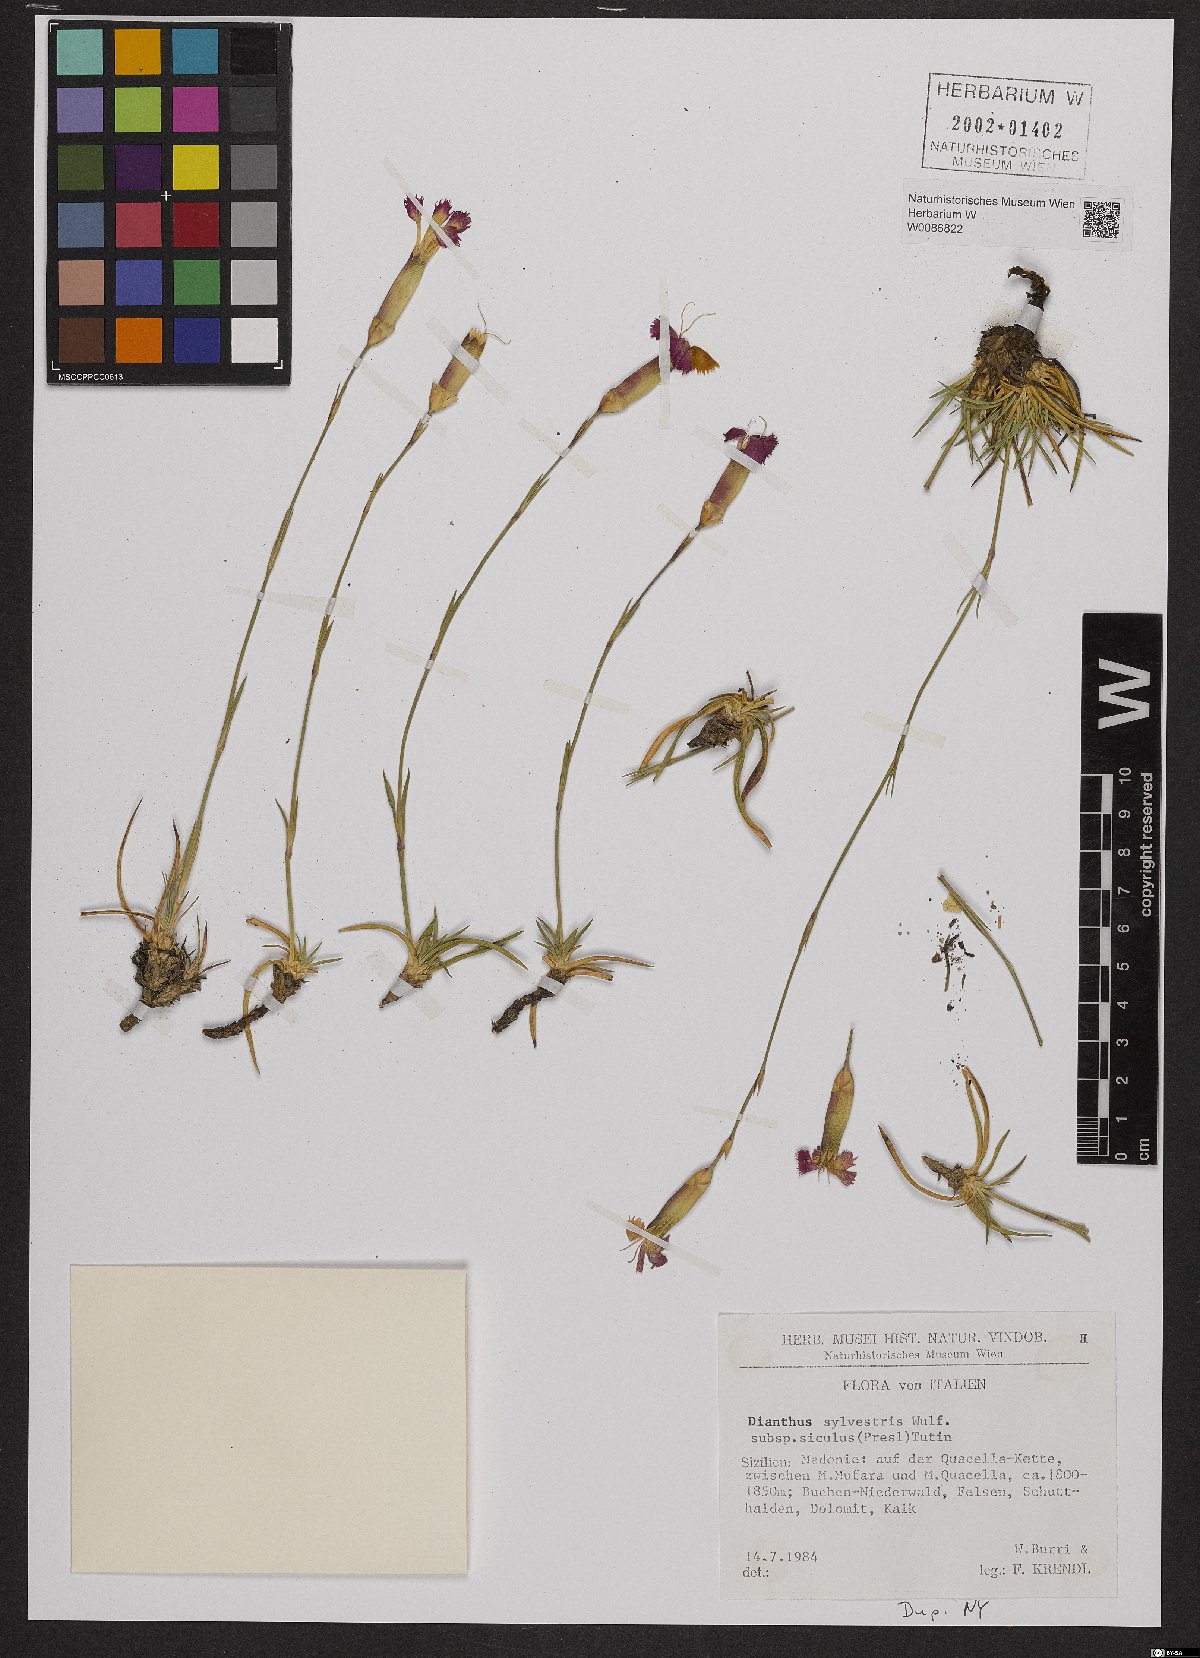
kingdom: Plantae
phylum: Tracheophyta
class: Magnoliopsida
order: Caryophyllales
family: Caryophyllaceae
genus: Dianthus
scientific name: Dianthus siculus
